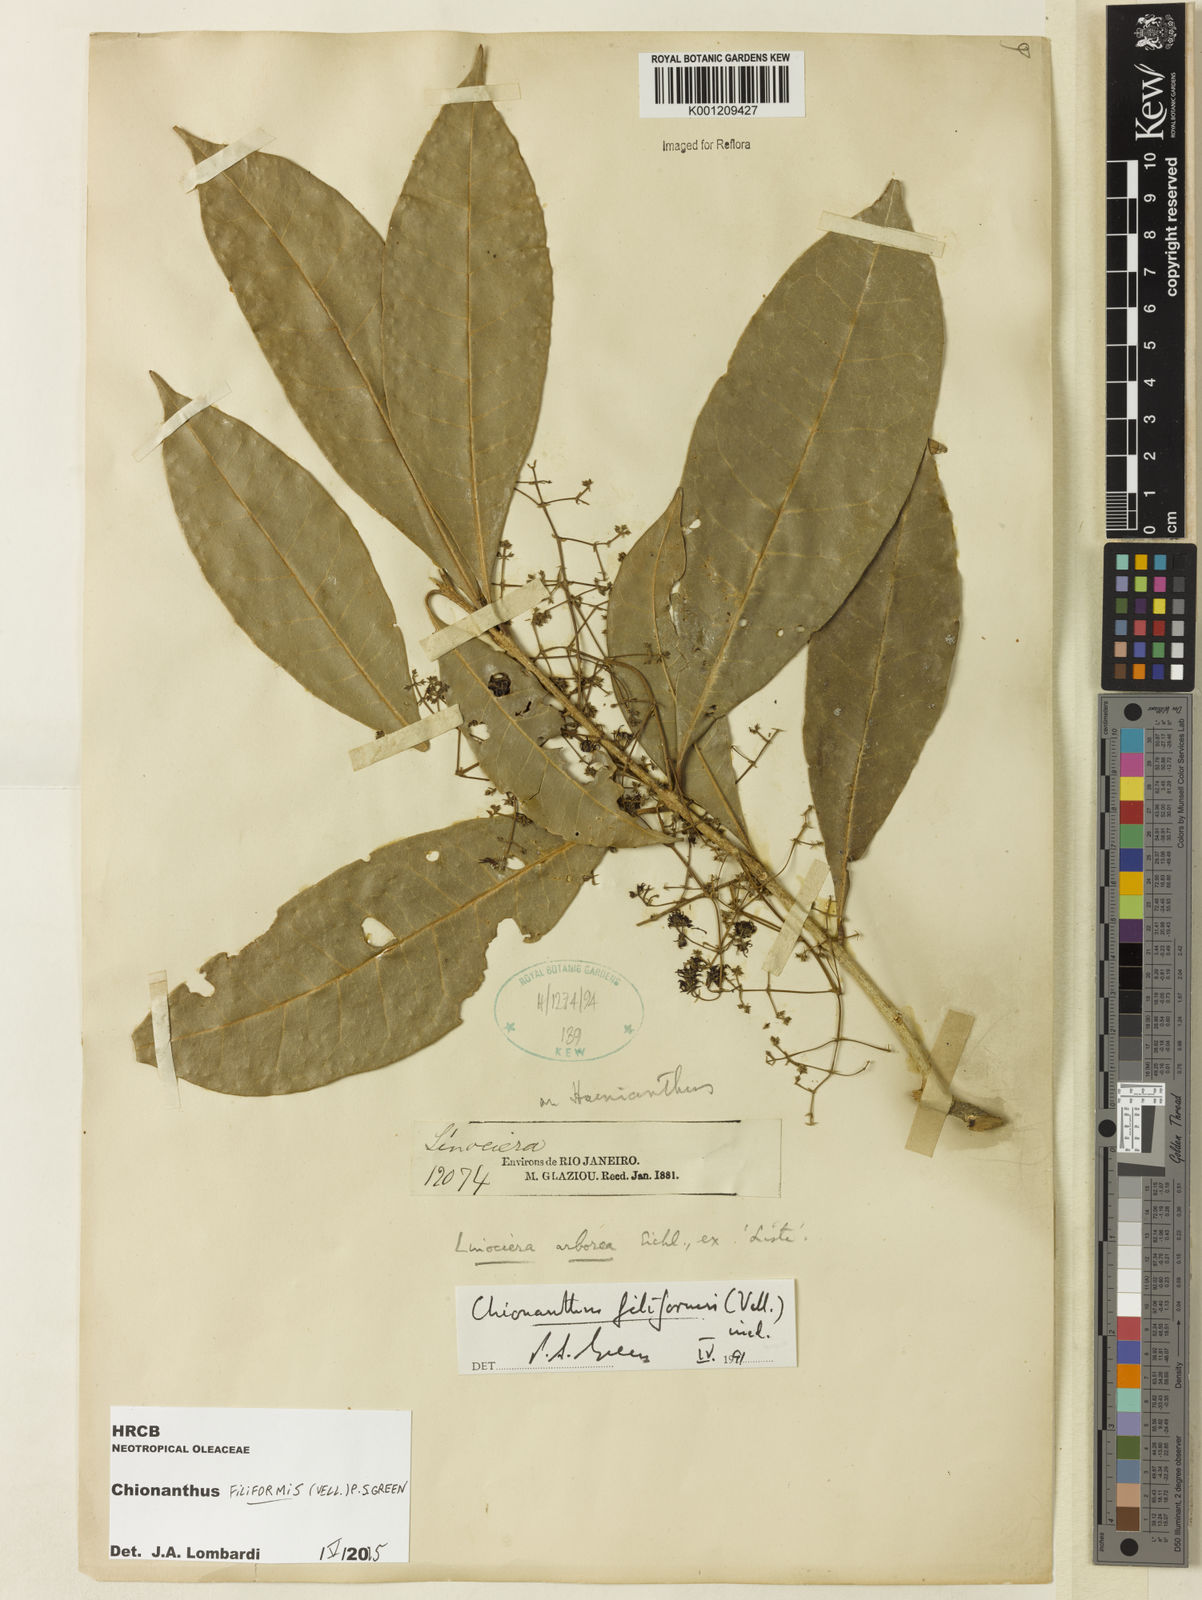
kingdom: Plantae
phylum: Tracheophyta
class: Magnoliopsida
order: Lamiales
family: Oleaceae
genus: Chionanthus
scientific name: Chionanthus filiformis
